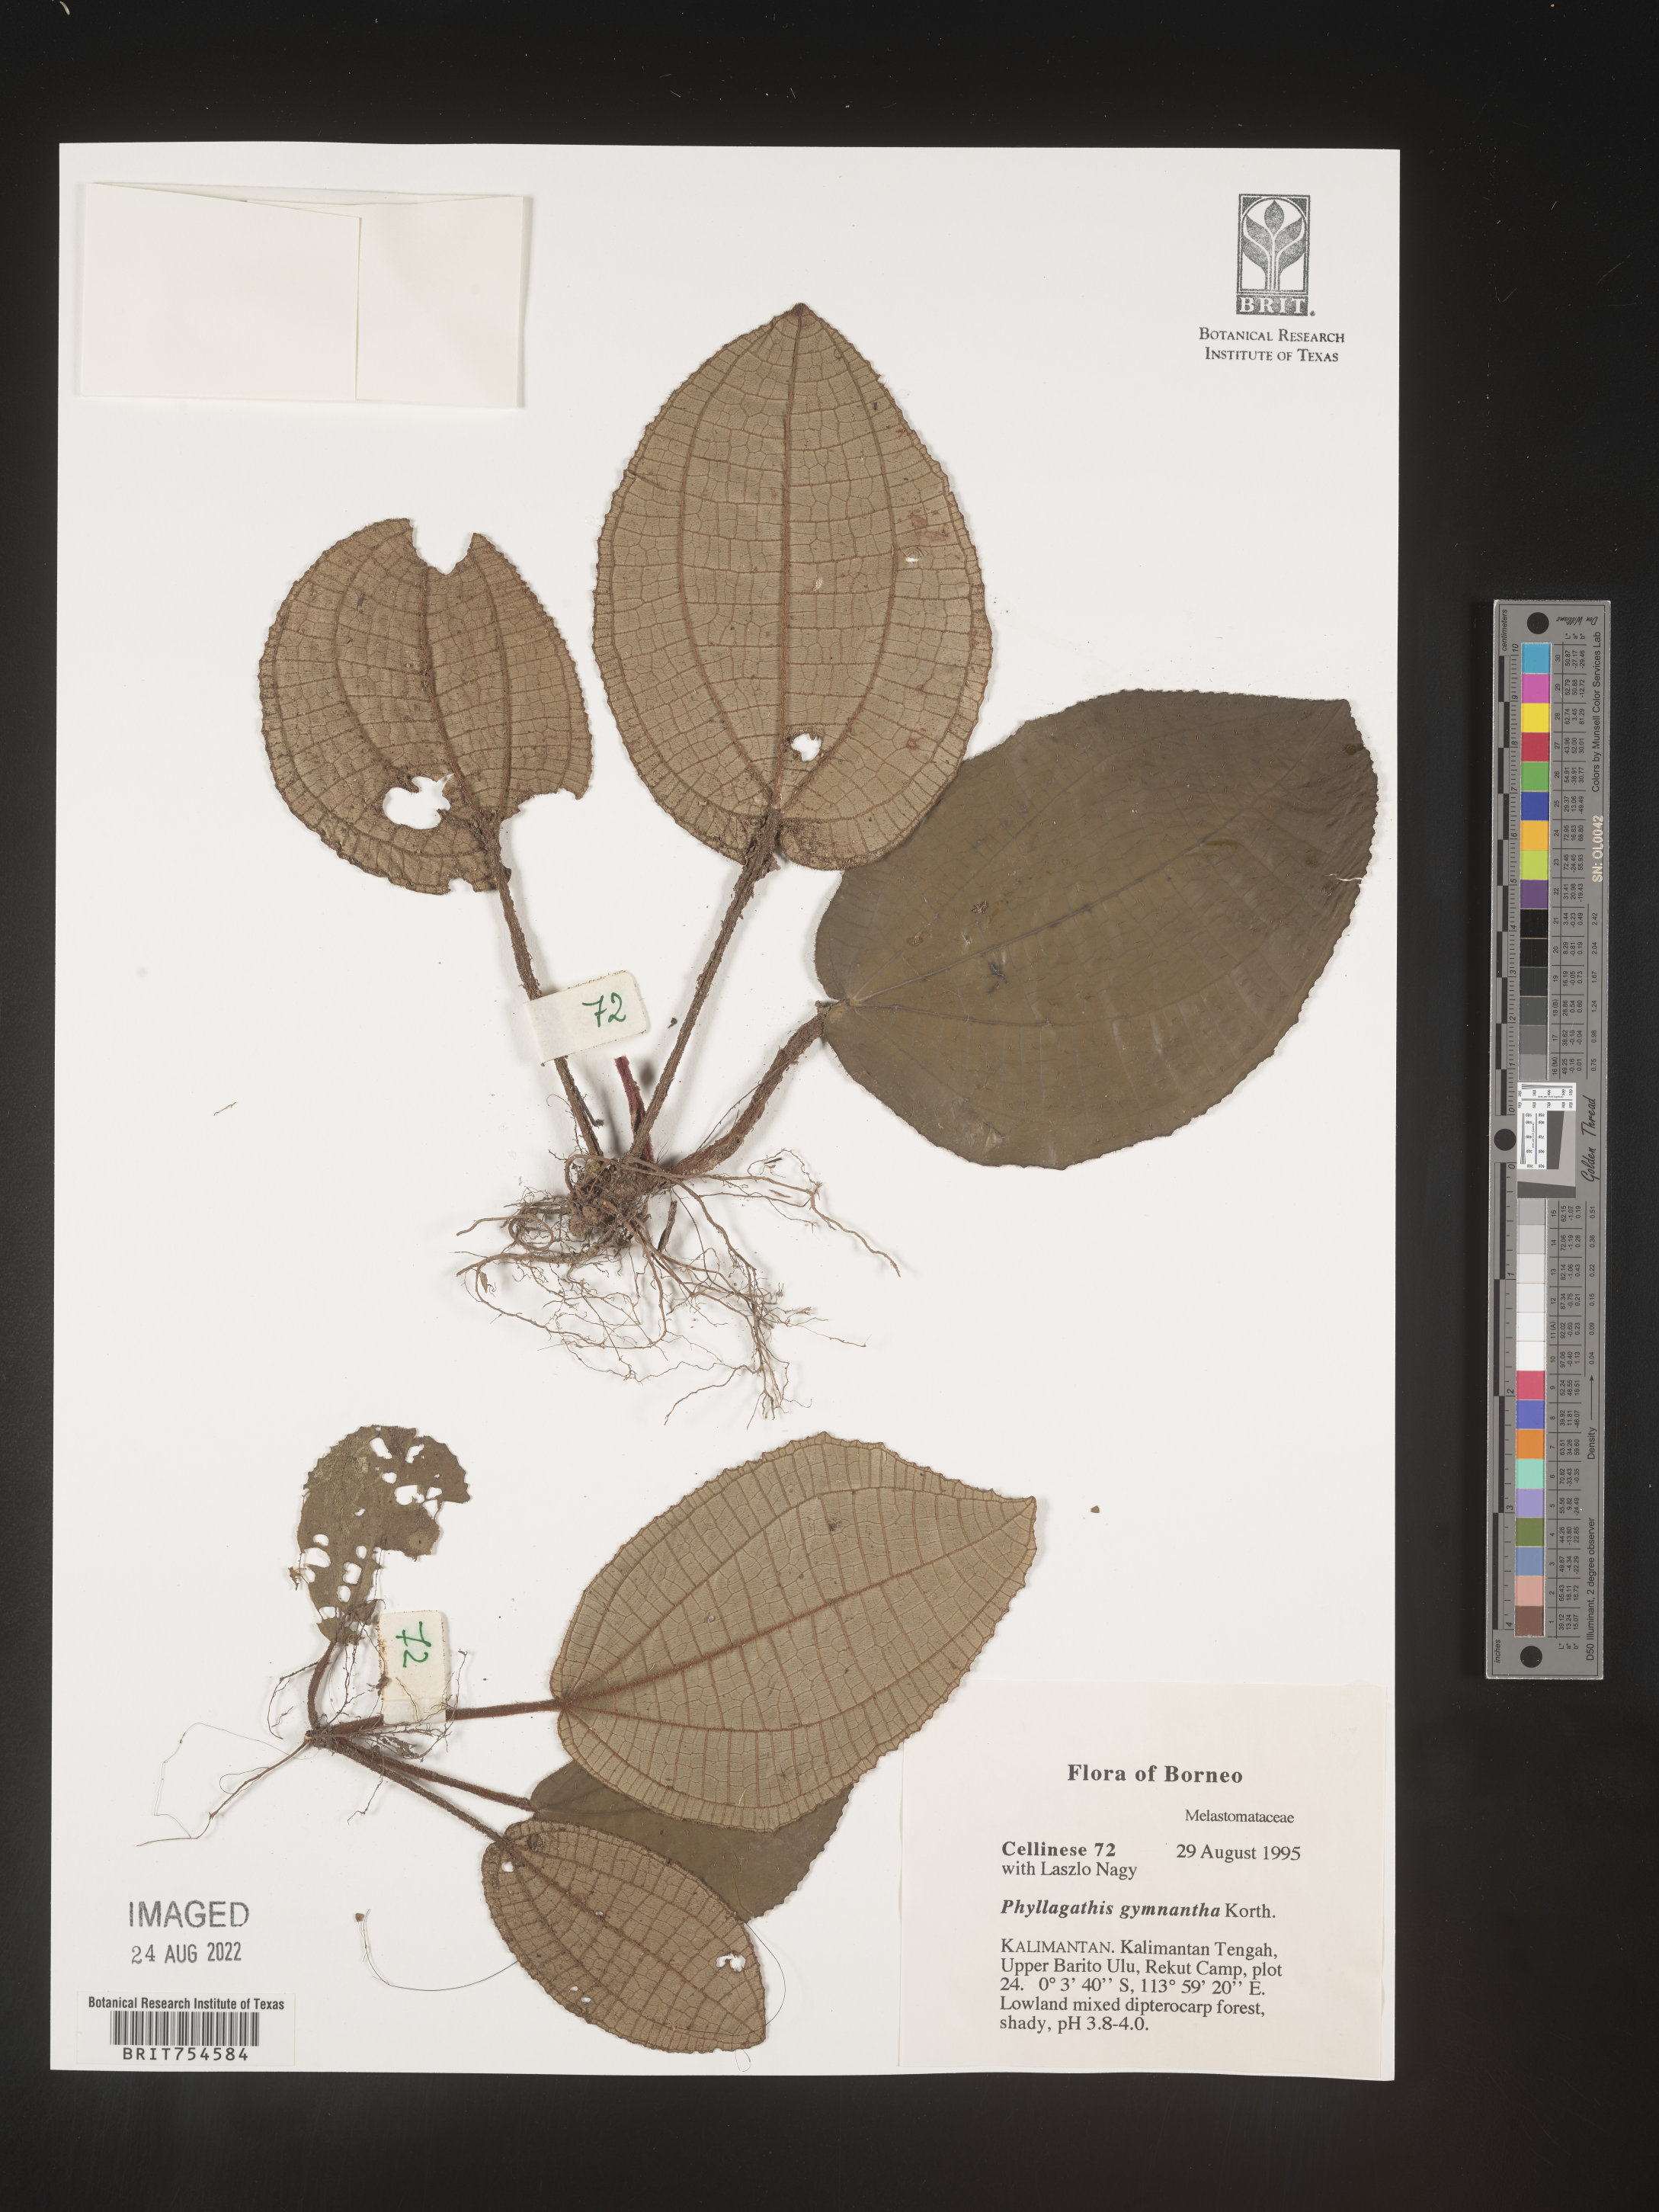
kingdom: Plantae
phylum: Tracheophyta
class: Magnoliopsida
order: Myrtales
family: Melastomataceae
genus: Phyllagathis
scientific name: Phyllagathis
